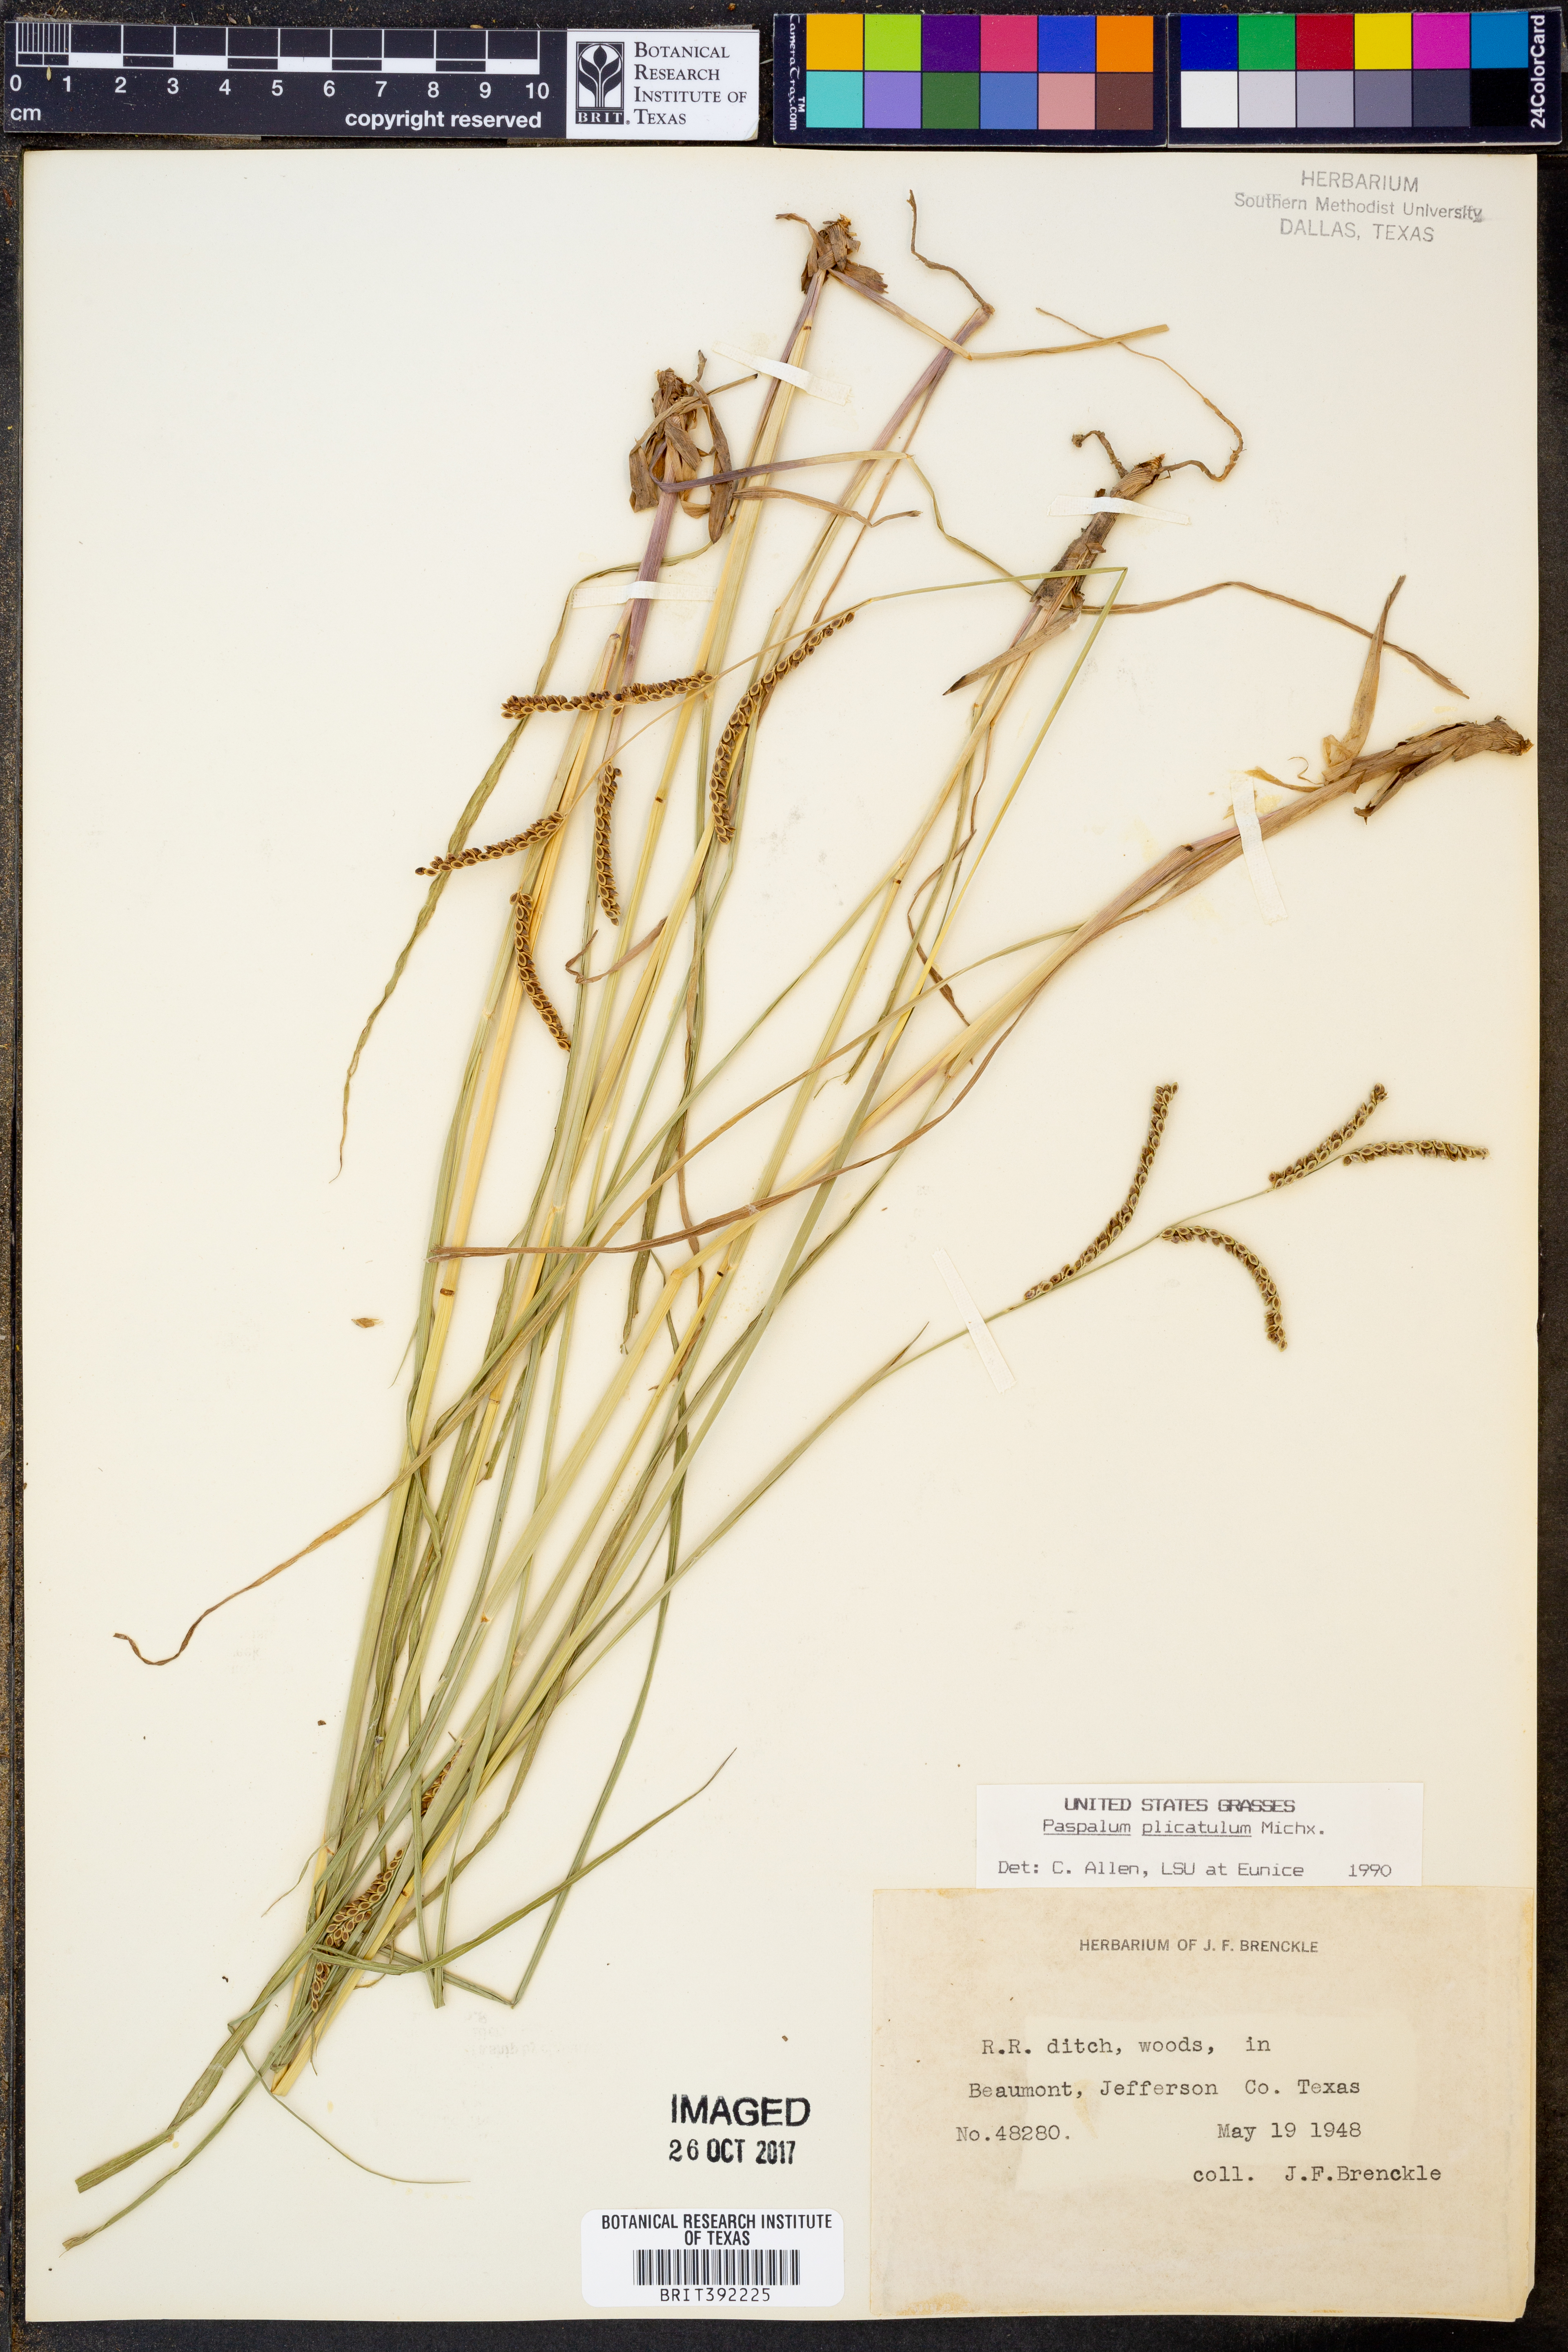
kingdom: Plantae
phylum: Tracheophyta
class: Liliopsida
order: Poales
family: Poaceae
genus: Paspalum
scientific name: Paspalum plicatulum
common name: Top paspalum
